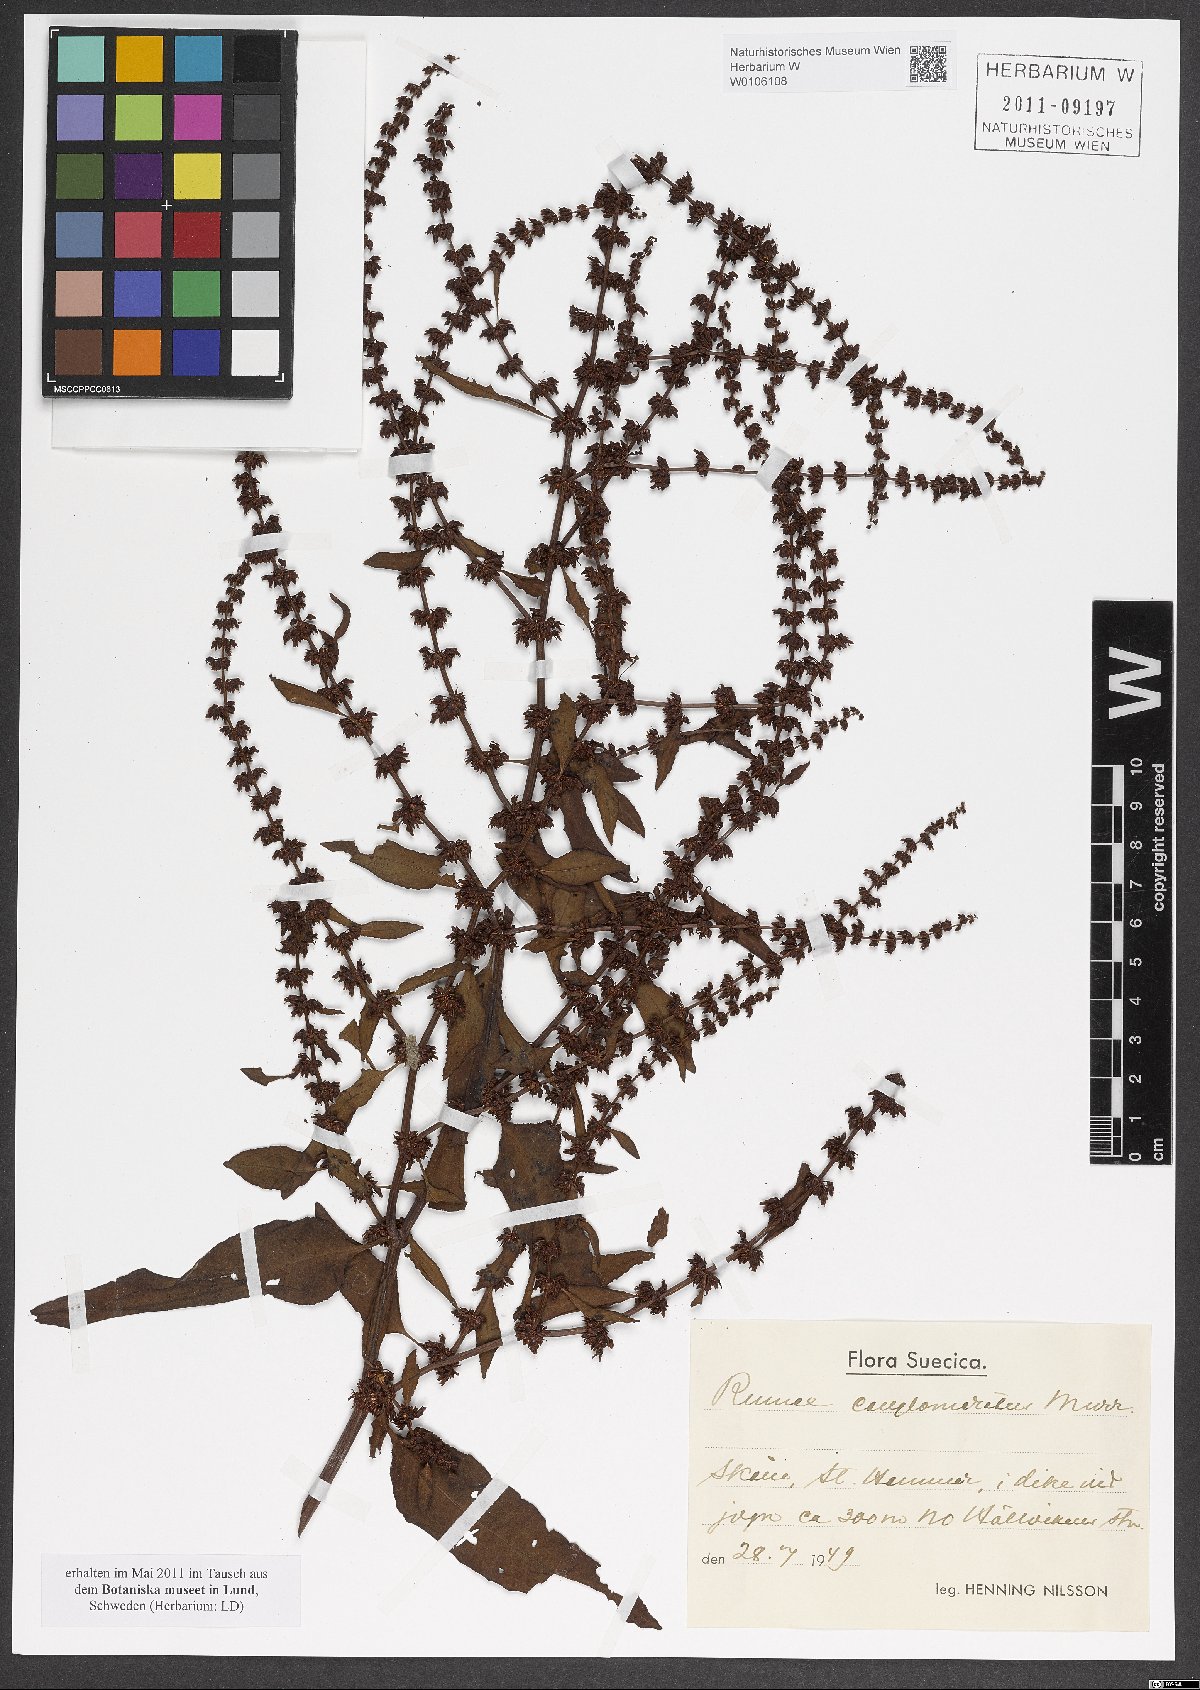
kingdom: Plantae
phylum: Tracheophyta
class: Magnoliopsida
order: Caryophyllales
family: Polygonaceae
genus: Rumex
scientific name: Rumex conglomeratus
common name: Clustered dock
